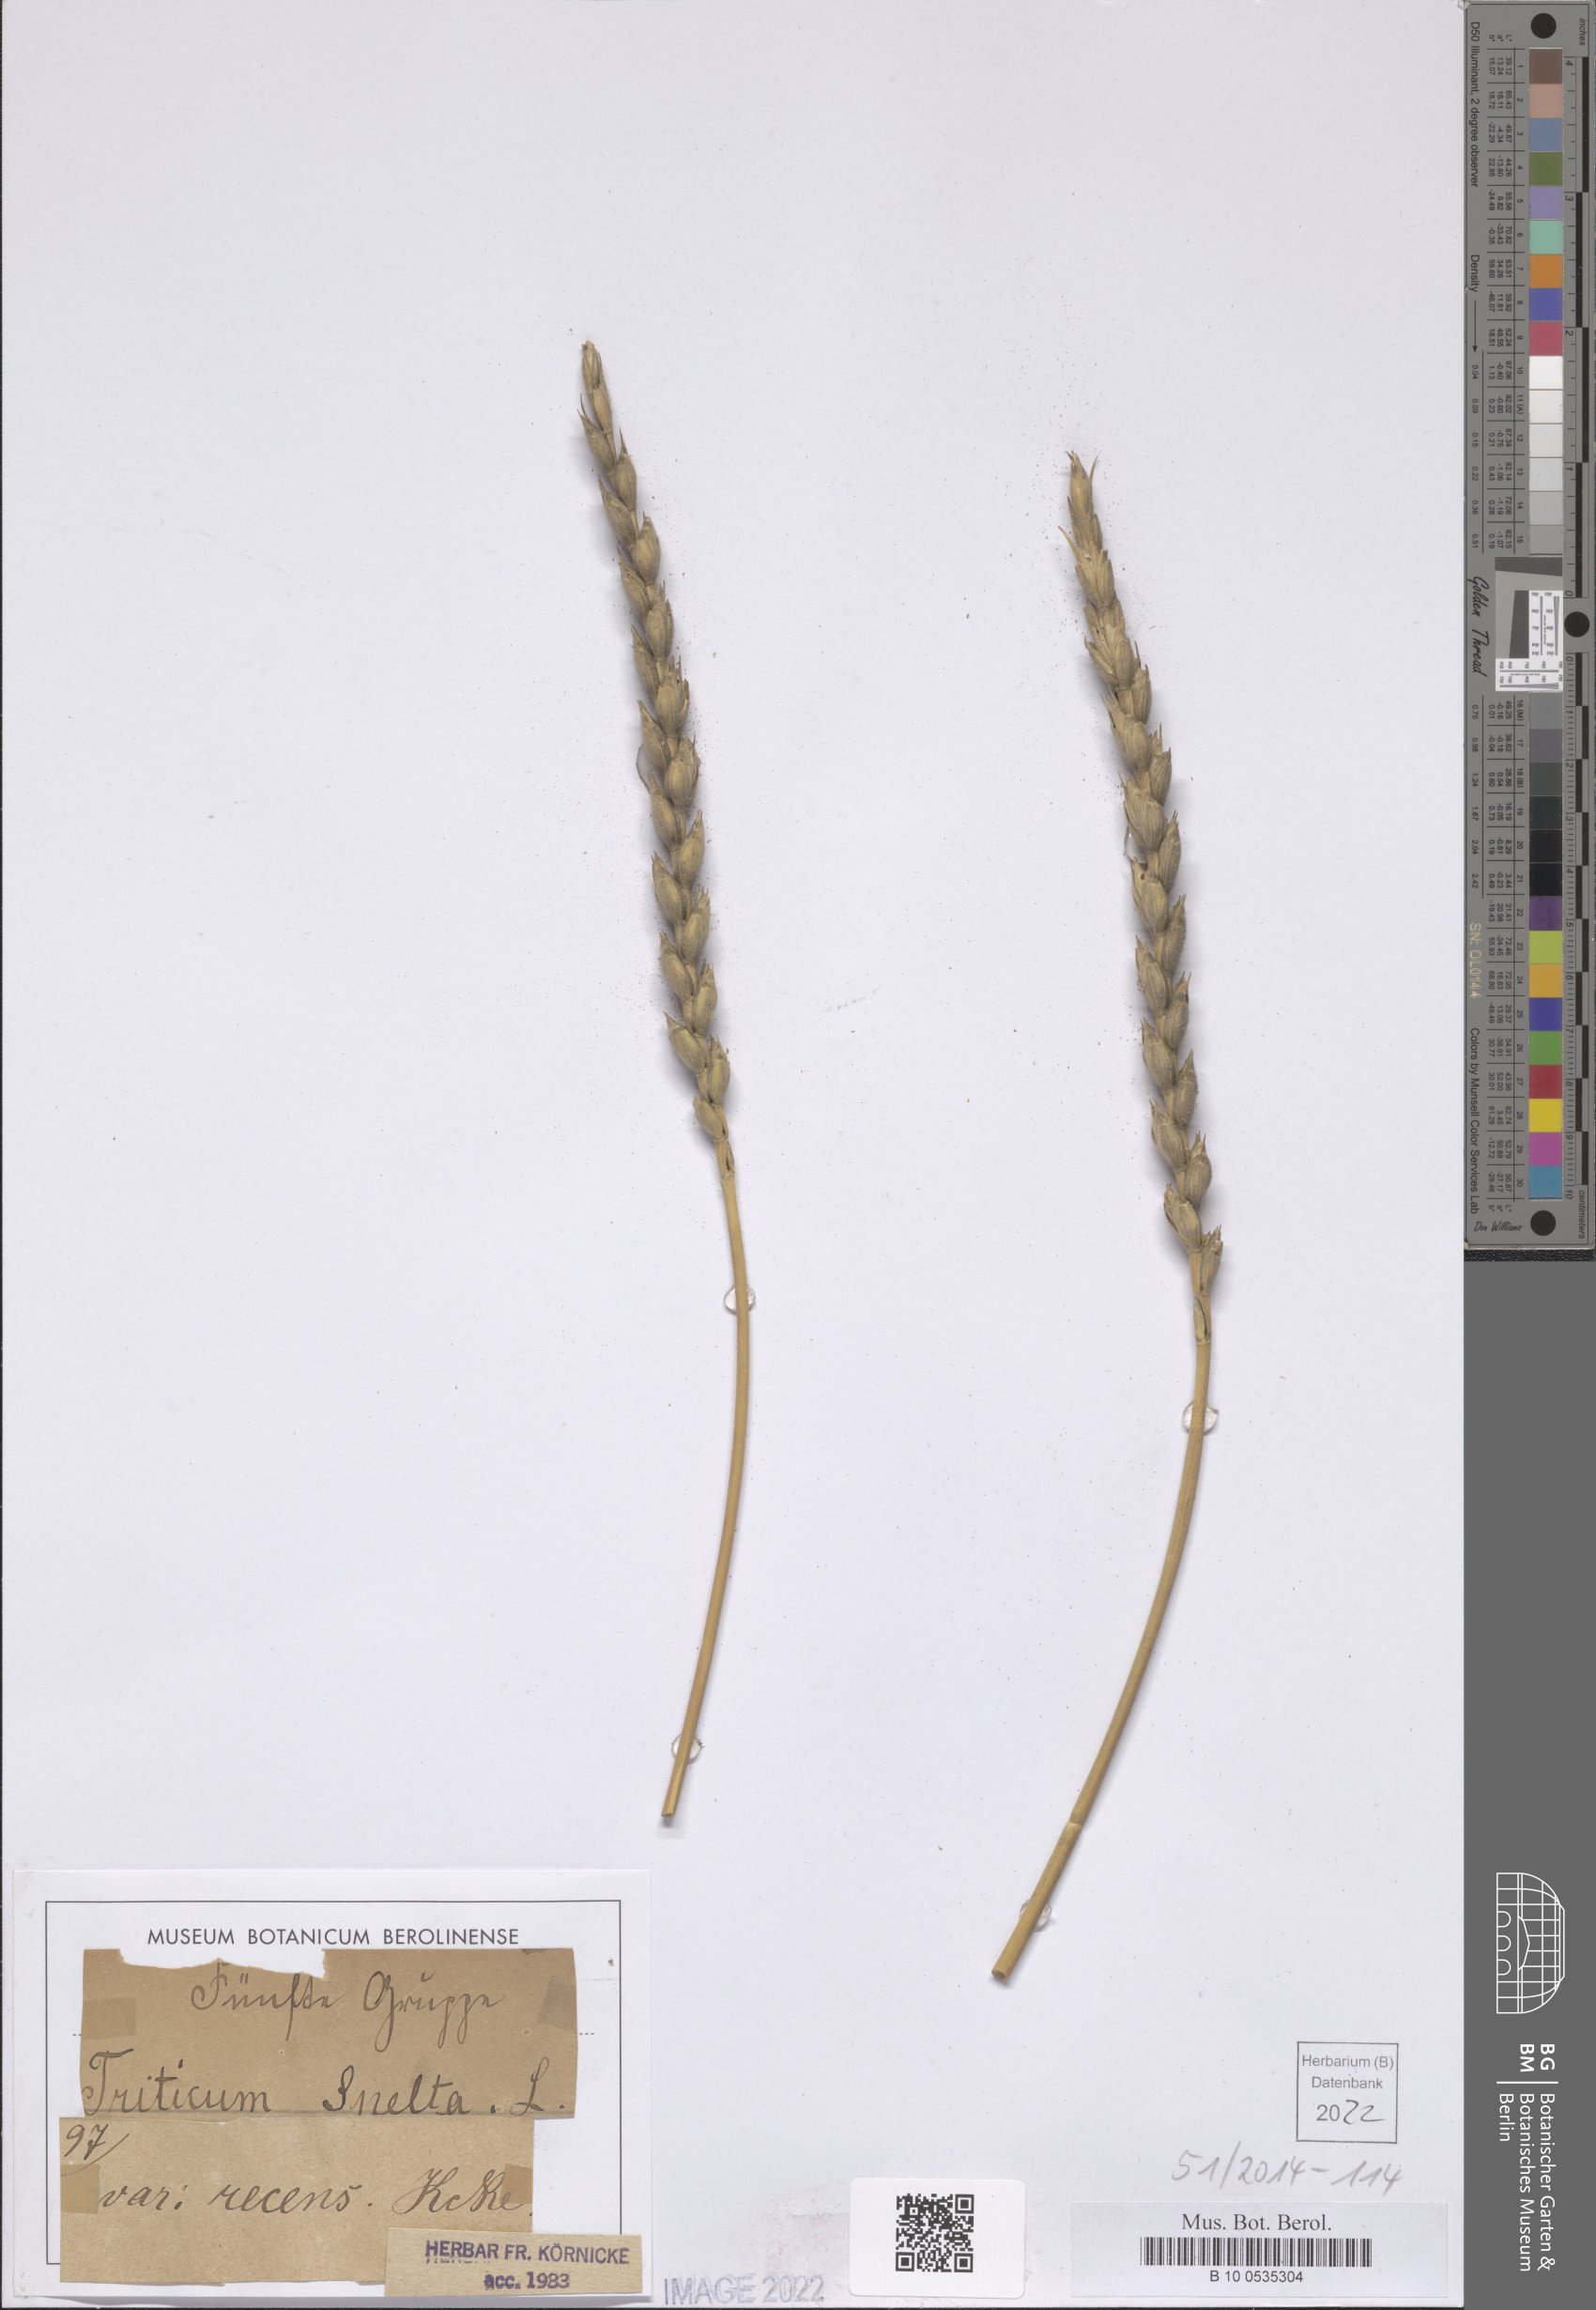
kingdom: Plantae
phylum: Tracheophyta
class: Liliopsida
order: Poales
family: Poaceae
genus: Triticum
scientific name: Triticum aestivum
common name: Common wheat
